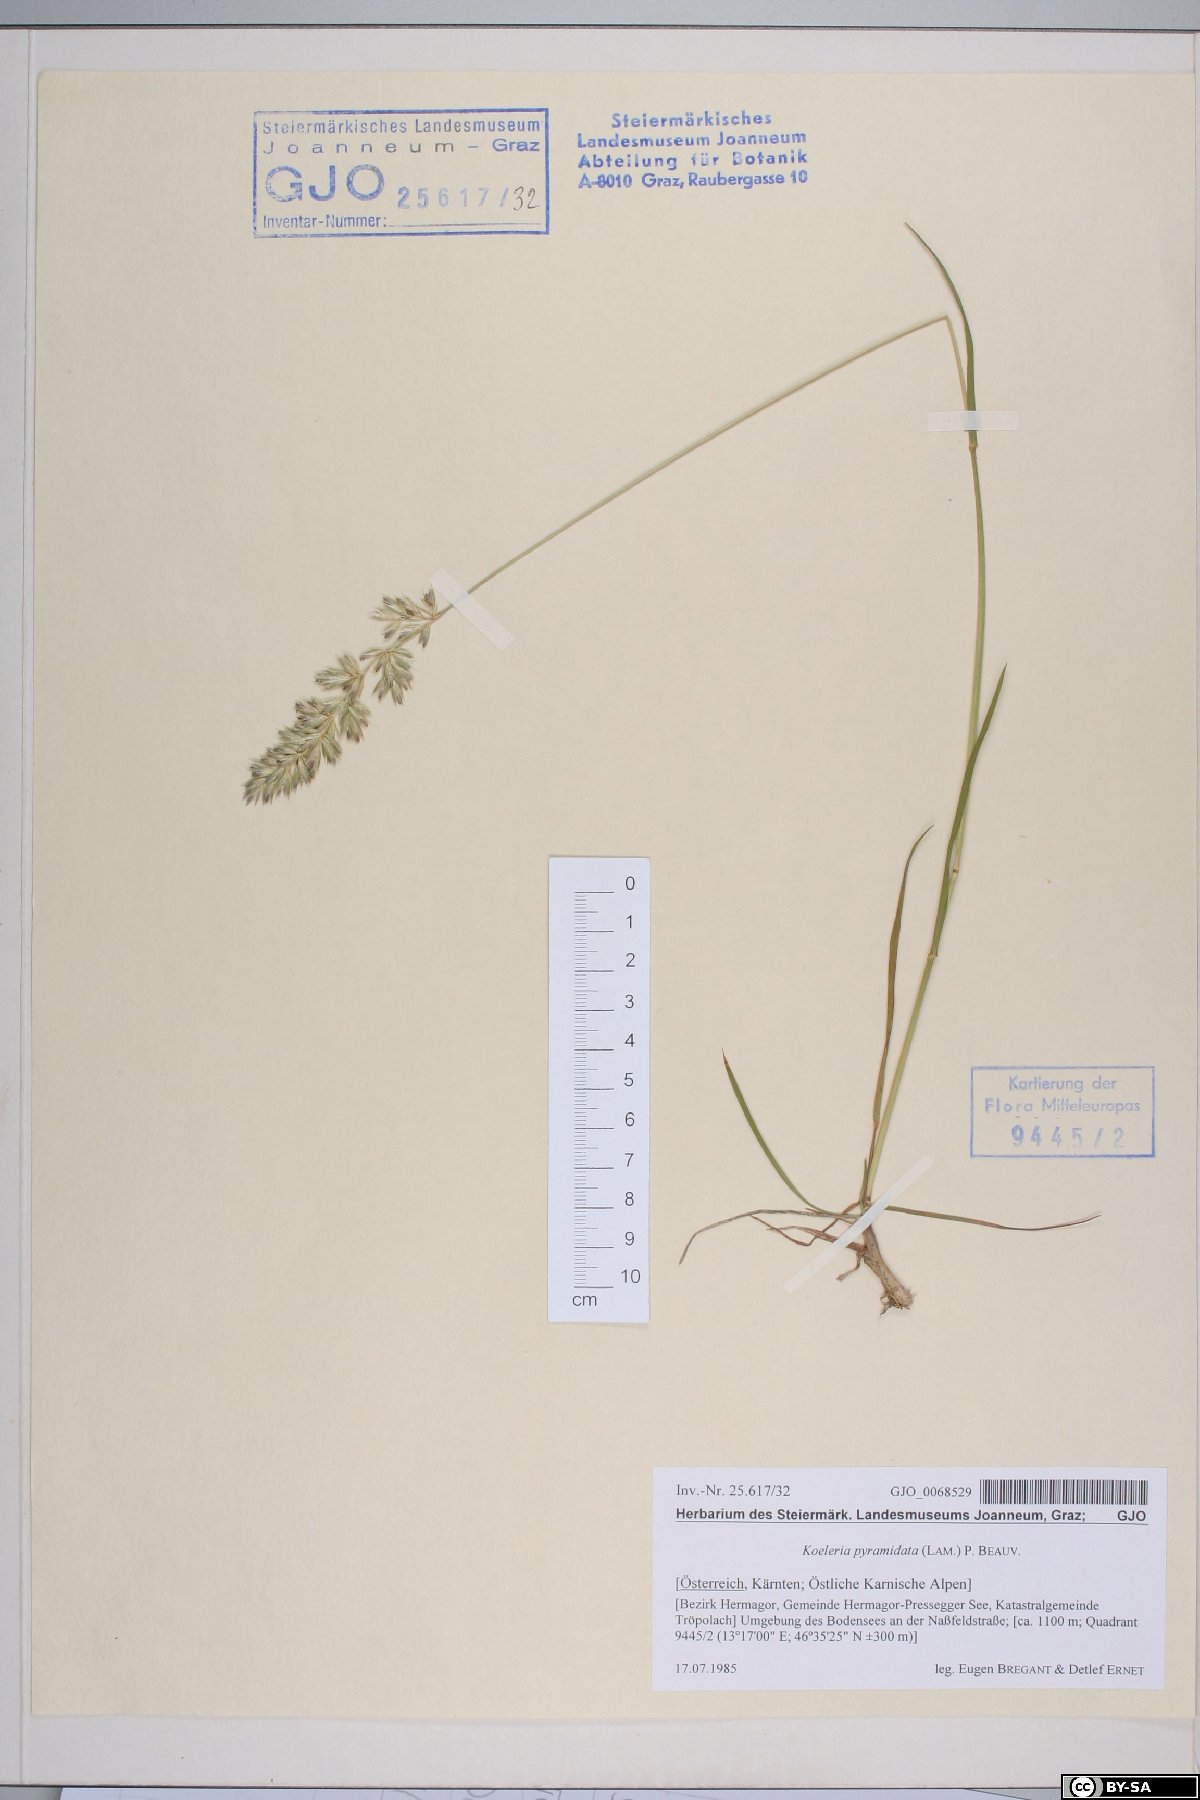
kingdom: Plantae
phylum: Tracheophyta
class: Liliopsida
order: Poales
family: Poaceae
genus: Koeleria
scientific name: Koeleria pyramidata
